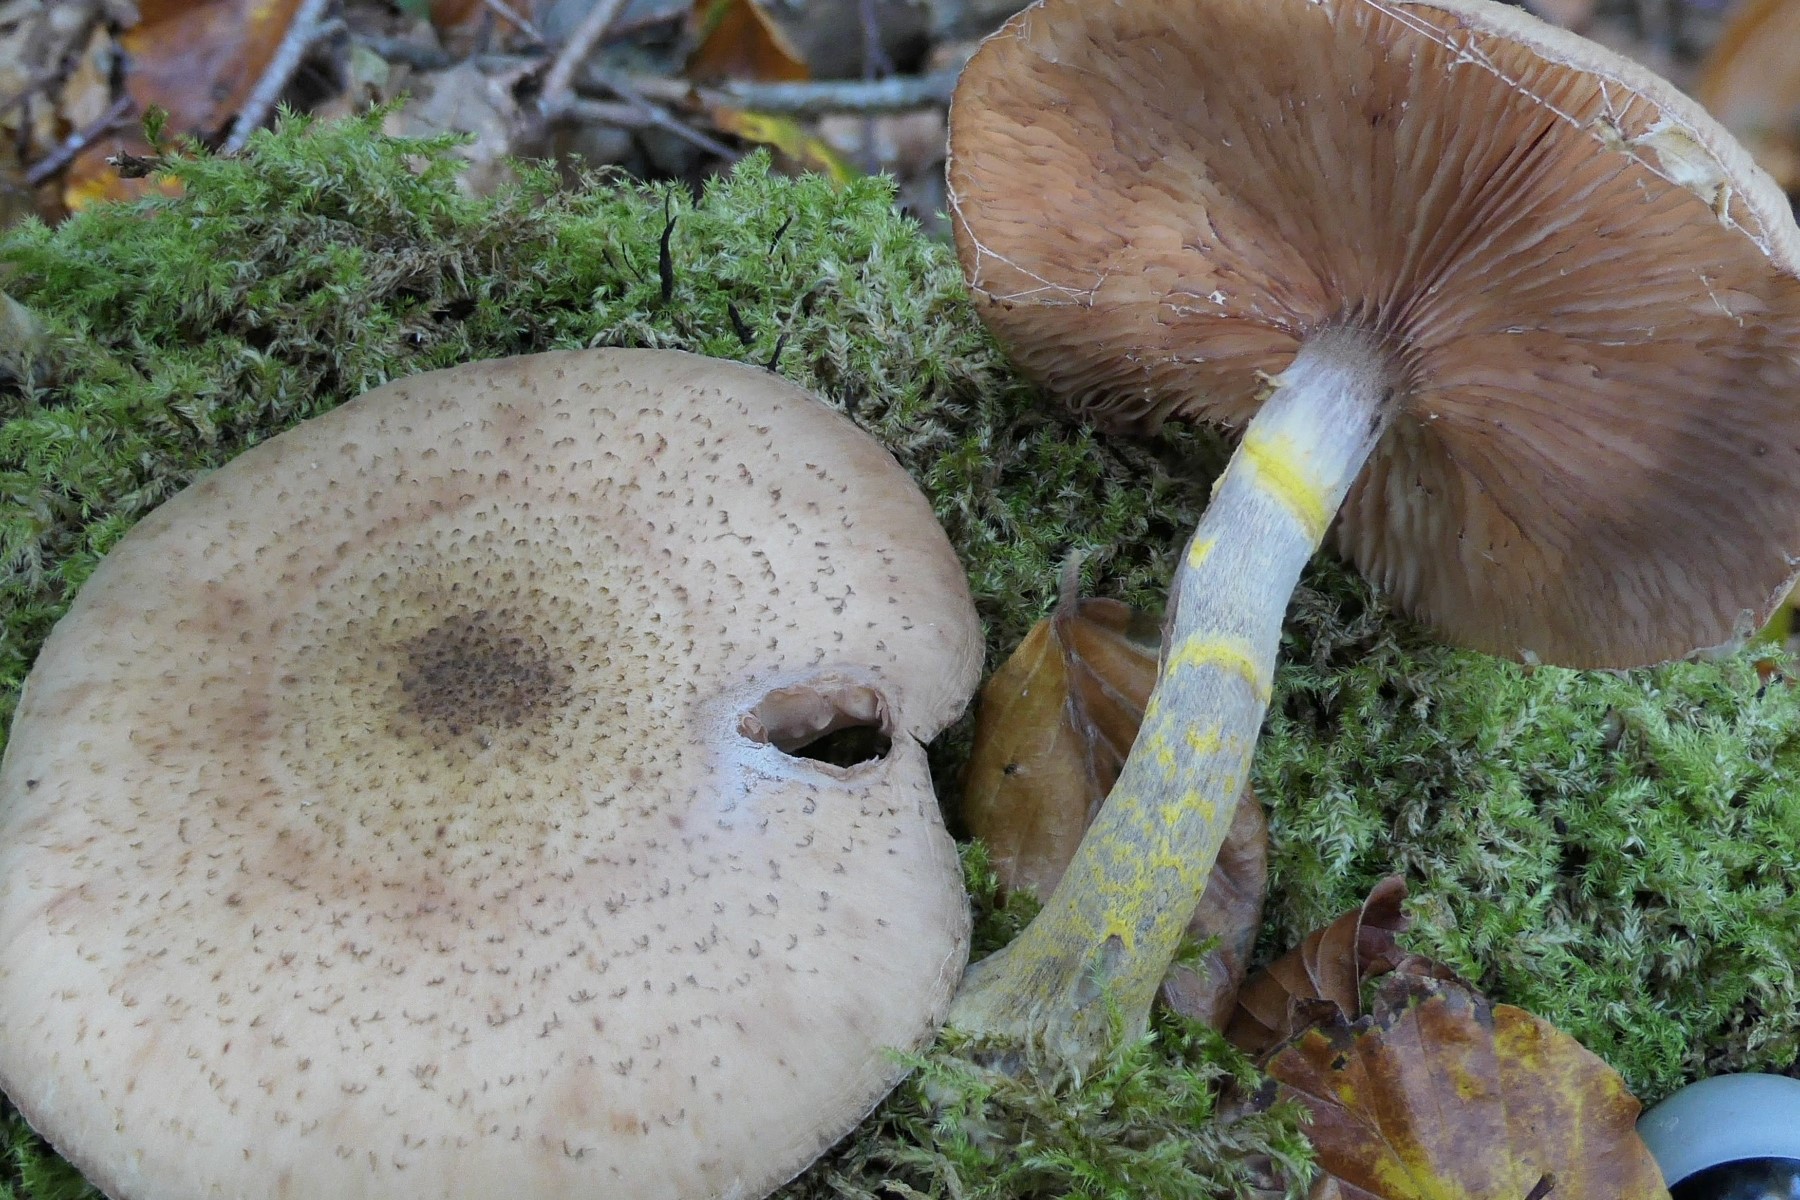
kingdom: Fungi
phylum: Basidiomycota
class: Agaricomycetes
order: Agaricales
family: Physalacriaceae
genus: Armillaria
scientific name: Armillaria lutea
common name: køllestokket honningsvamp
